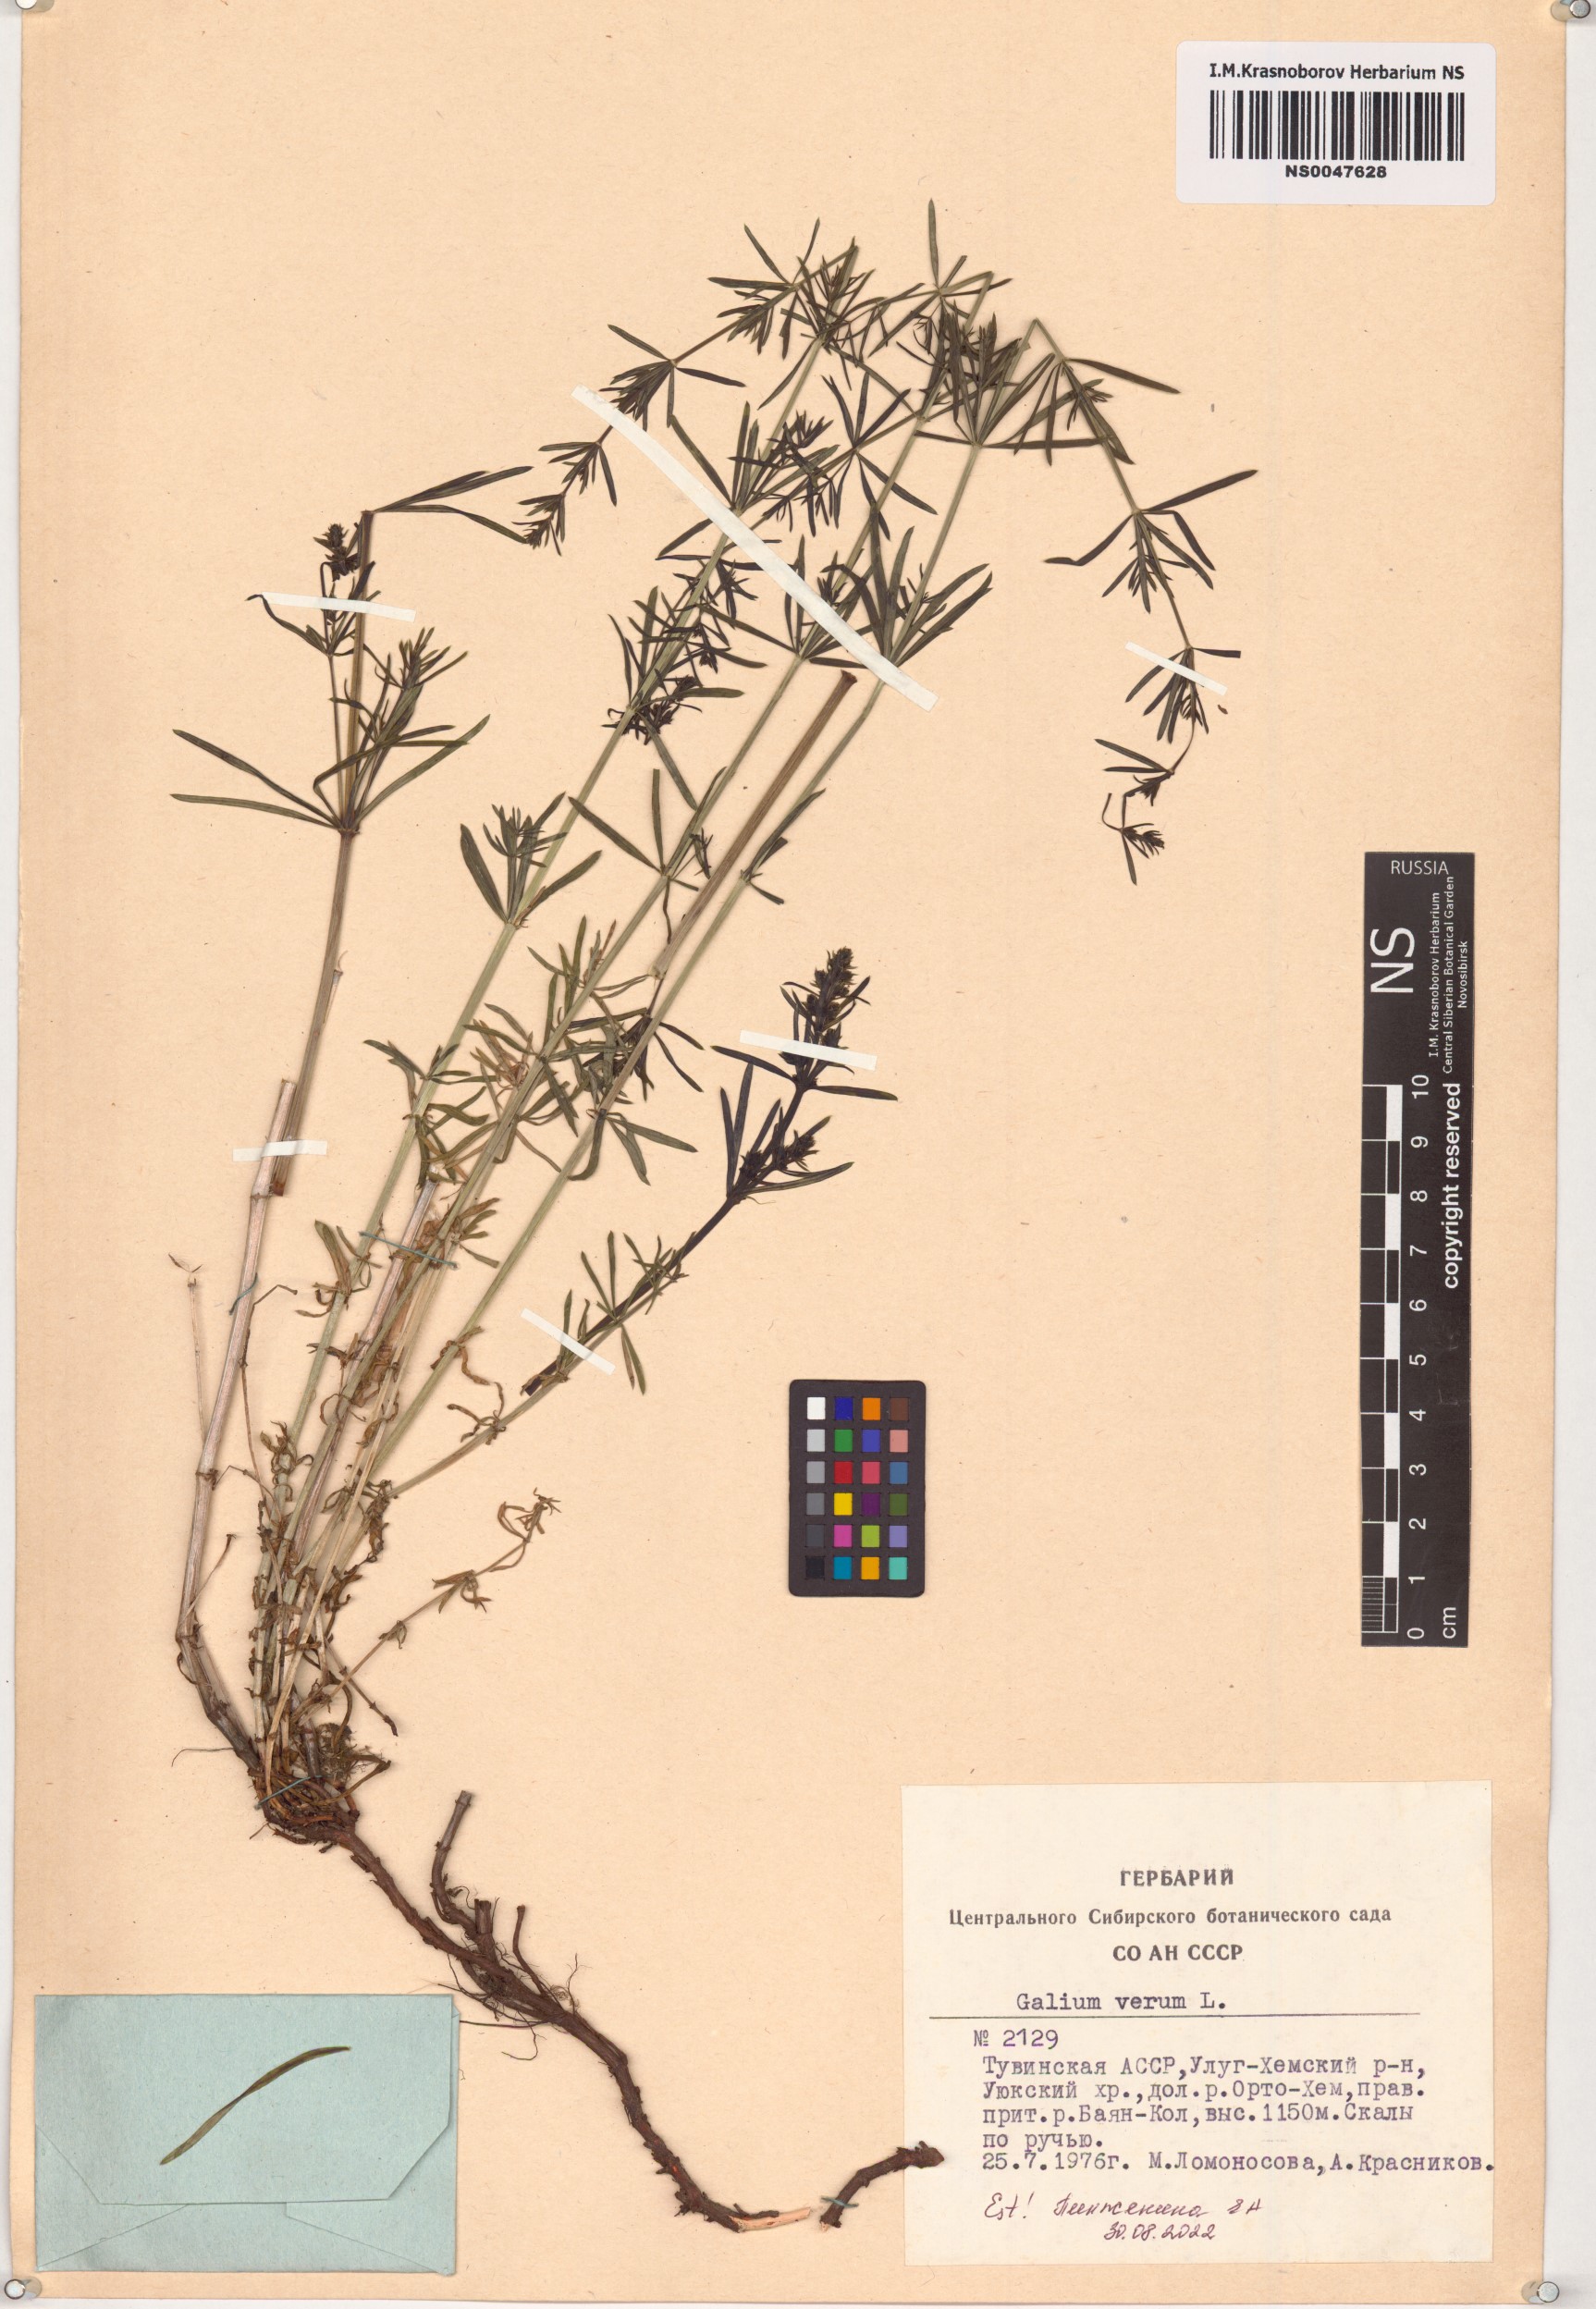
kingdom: Plantae
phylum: Tracheophyta
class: Magnoliopsida
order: Gentianales
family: Rubiaceae
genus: Galium
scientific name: Galium verum
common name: Lady's bedstraw
